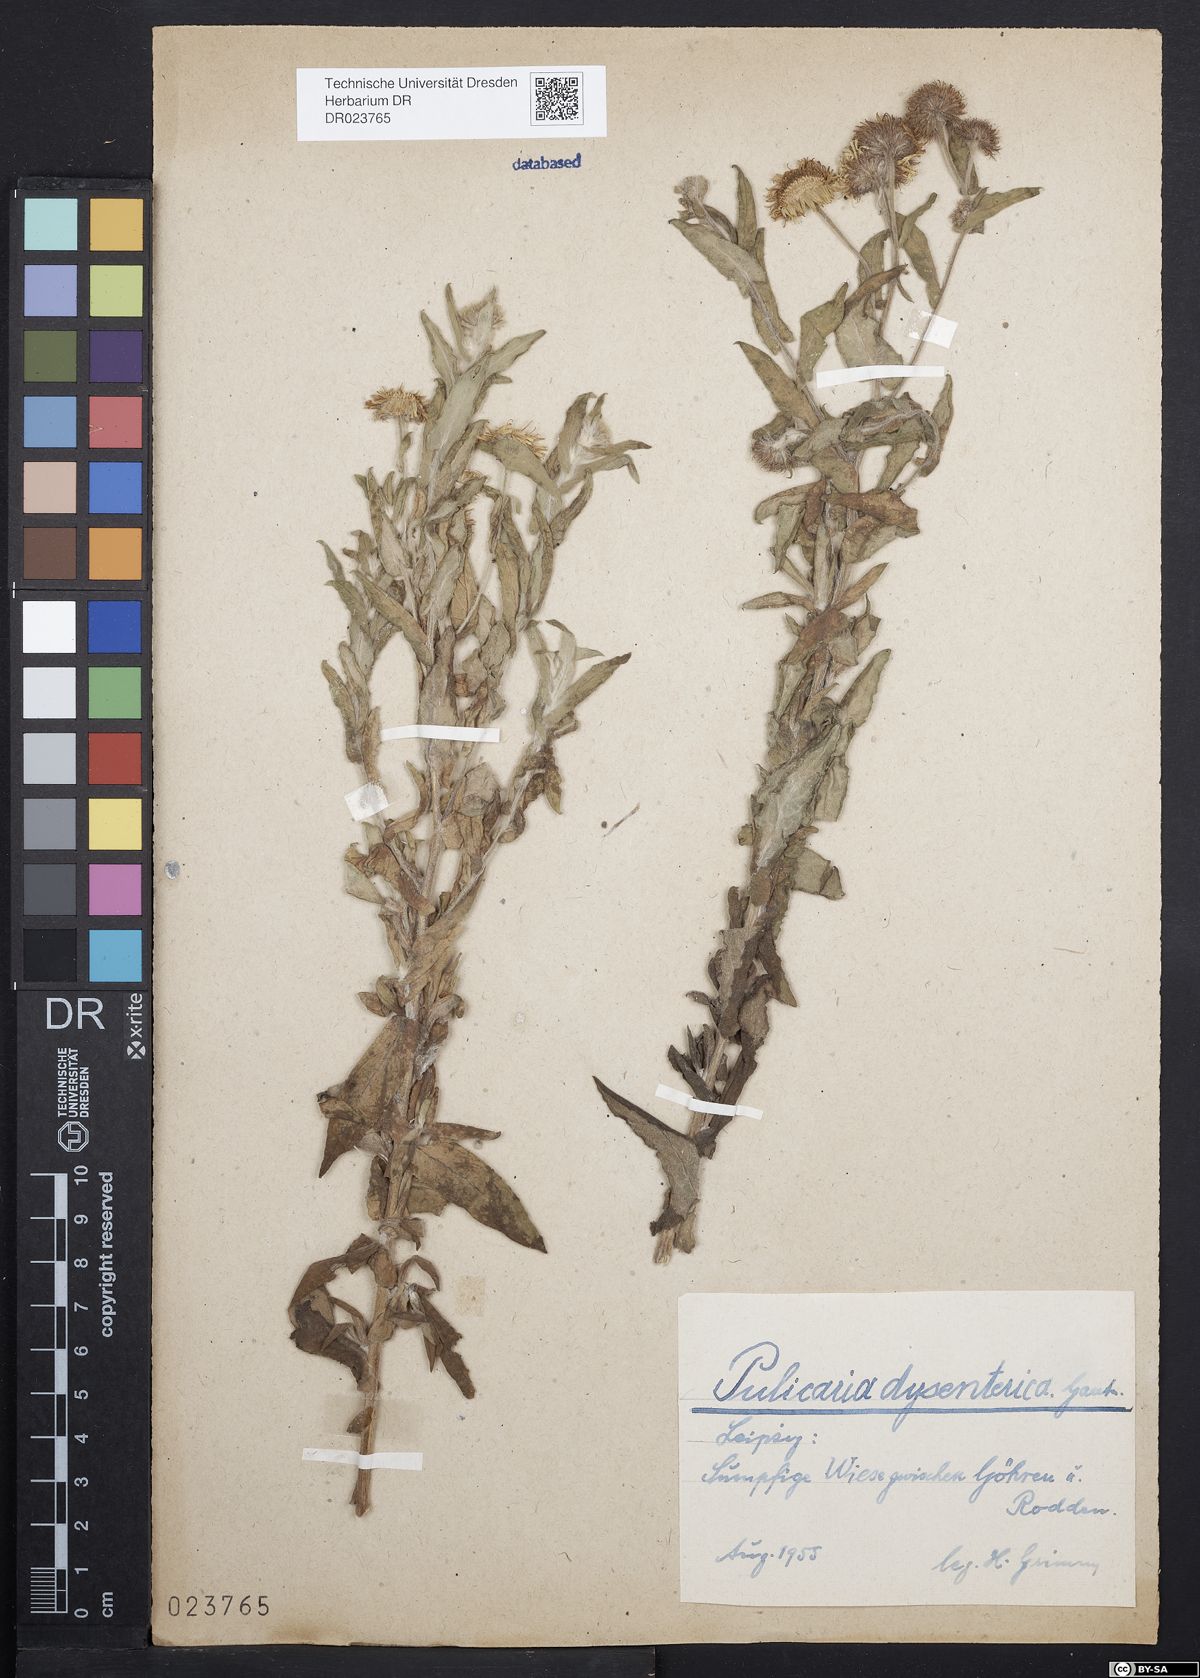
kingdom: Plantae
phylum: Tracheophyta
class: Magnoliopsida
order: Asterales
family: Asteraceae
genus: Pulicaria
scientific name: Pulicaria dysenterica
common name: Common fleabane
